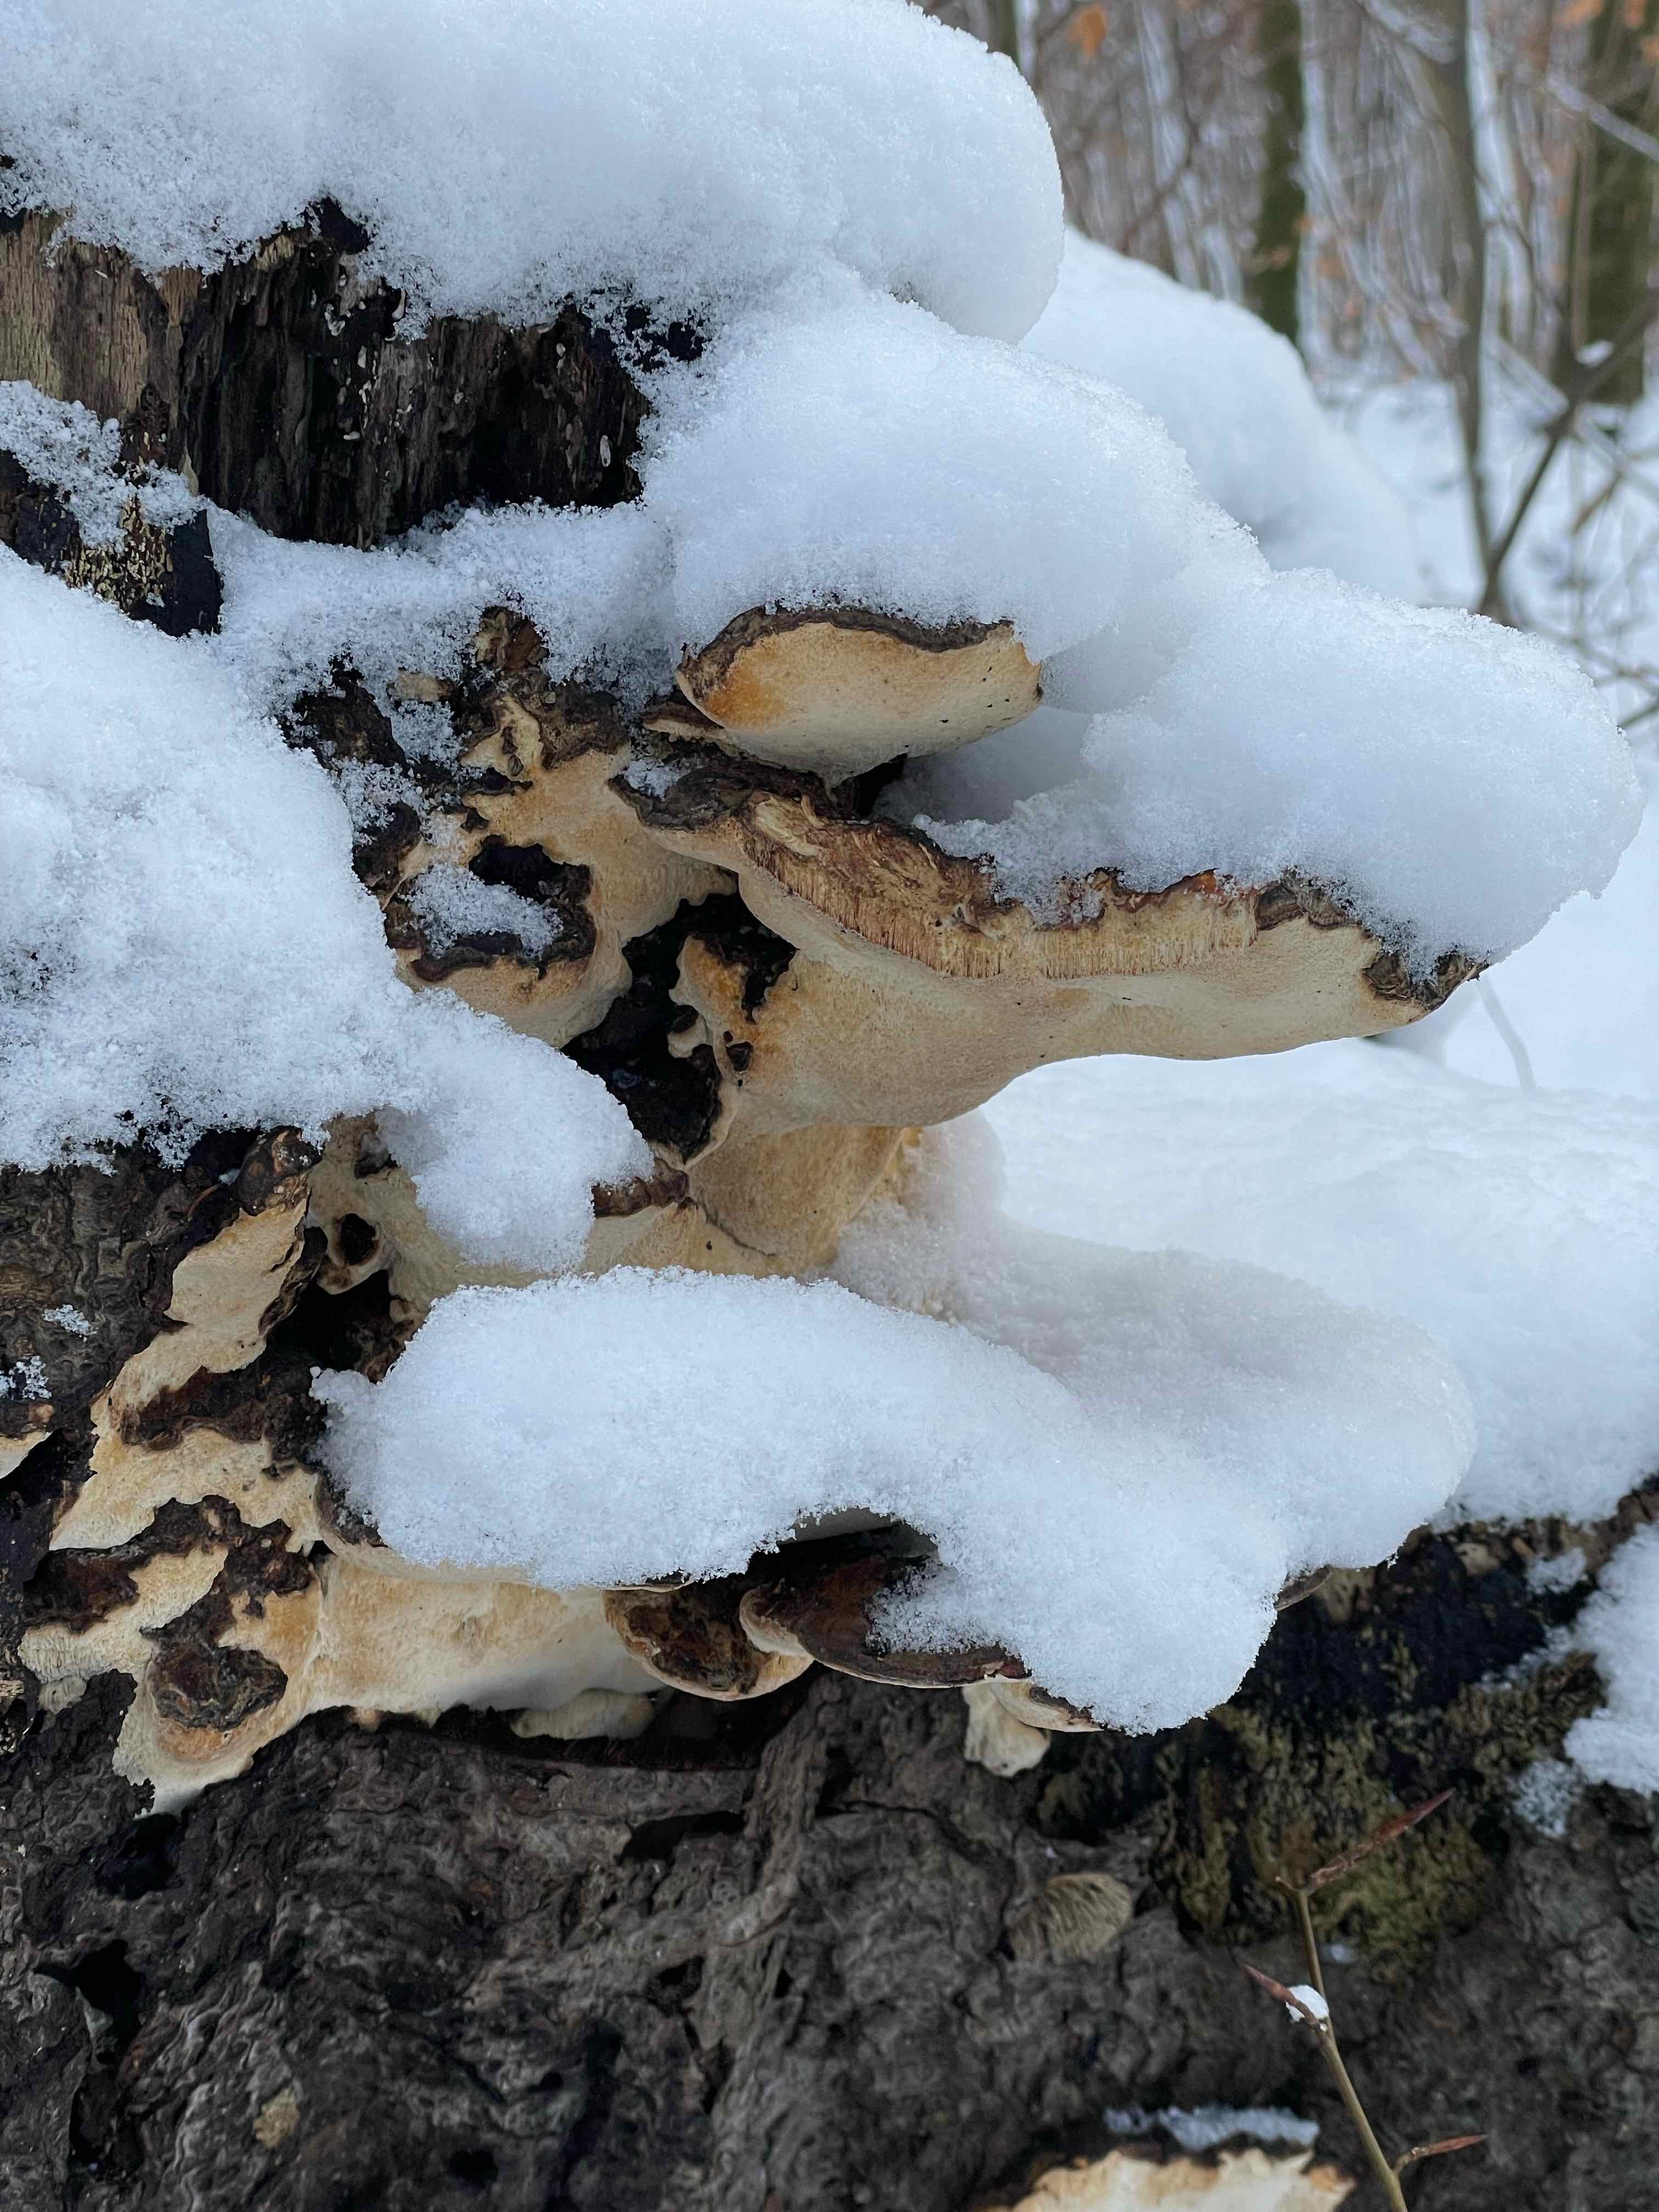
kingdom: Fungi
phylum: Basidiomycota
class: Agaricomycetes
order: Polyporales
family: Ischnodermataceae
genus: Ischnoderma
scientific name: Ischnoderma resinosum
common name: løv-tjæreporesvamp
